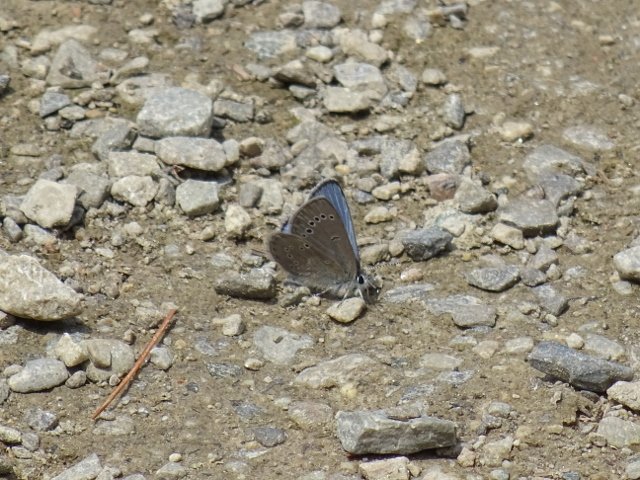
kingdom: Animalia
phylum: Arthropoda
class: Insecta
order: Lepidoptera
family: Lycaenidae
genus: Glaucopsyche
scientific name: Glaucopsyche lygdamus
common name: Silvery Blue
